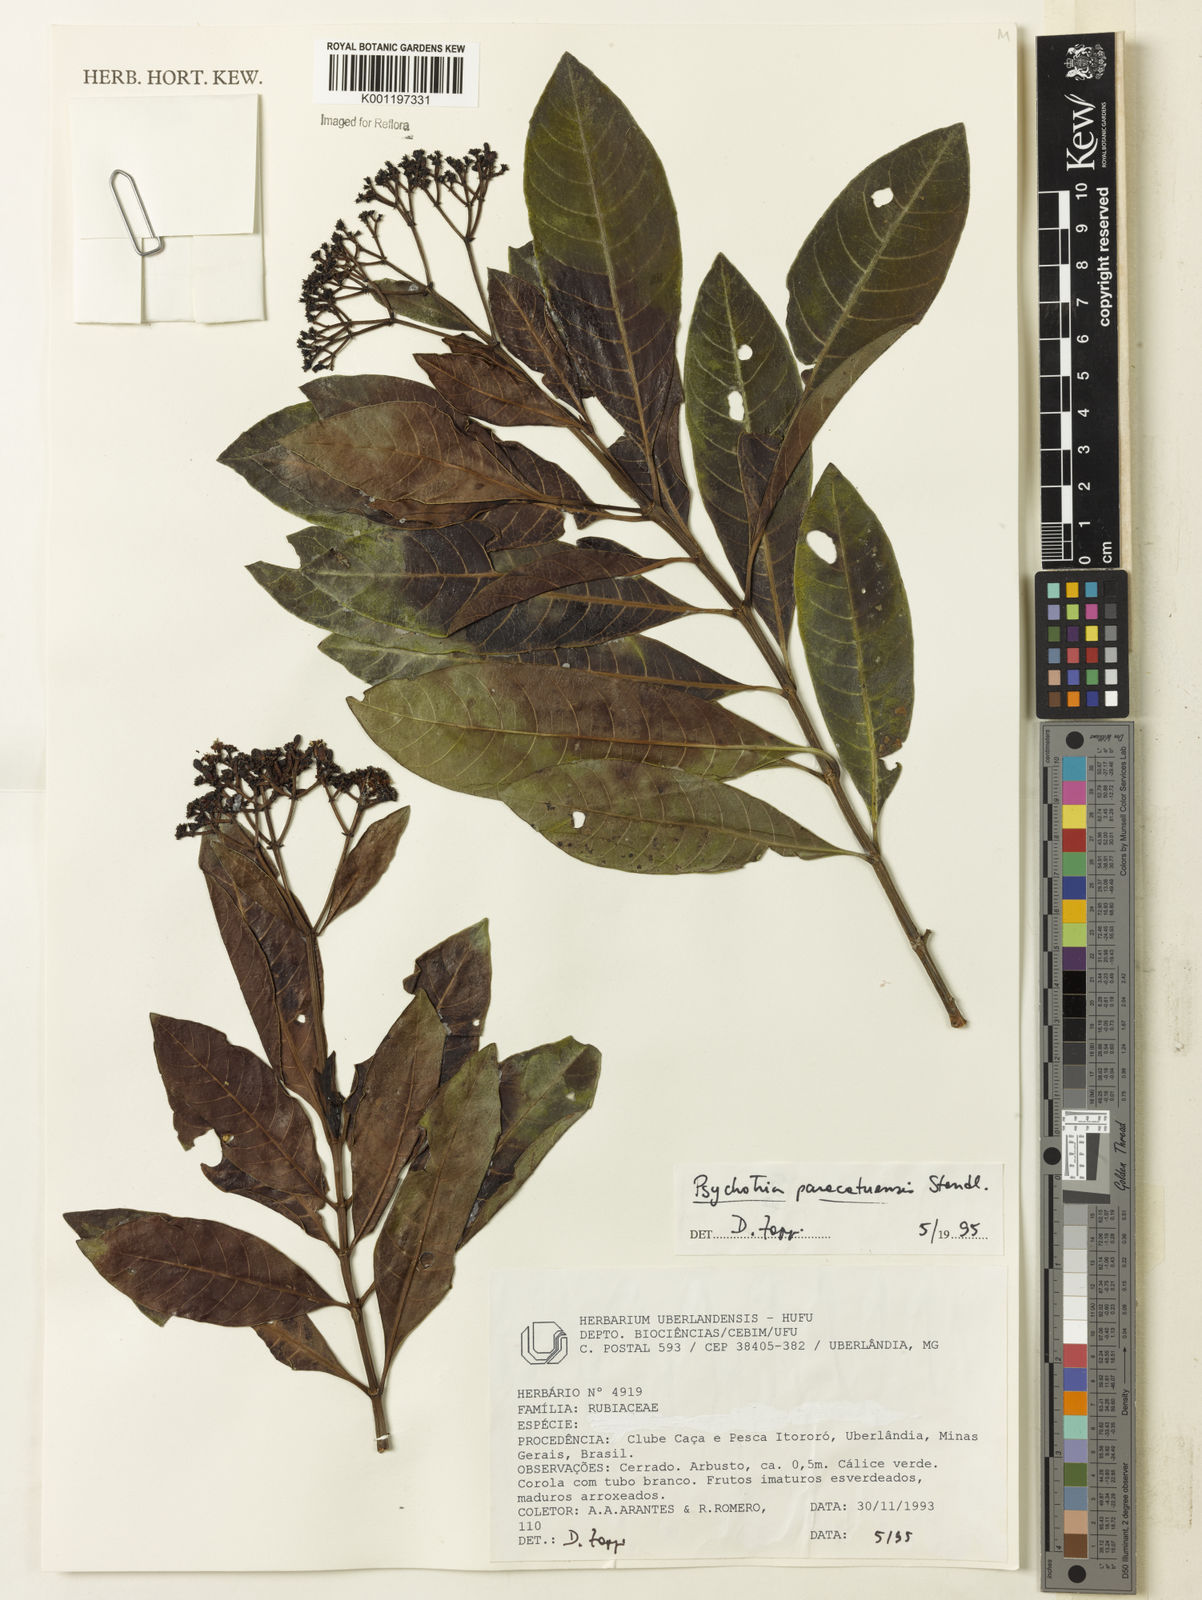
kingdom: Plantae
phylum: Tracheophyta
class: Magnoliopsida
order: Gentianales
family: Rubiaceae
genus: Psychotria
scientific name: Psychotria anceps
